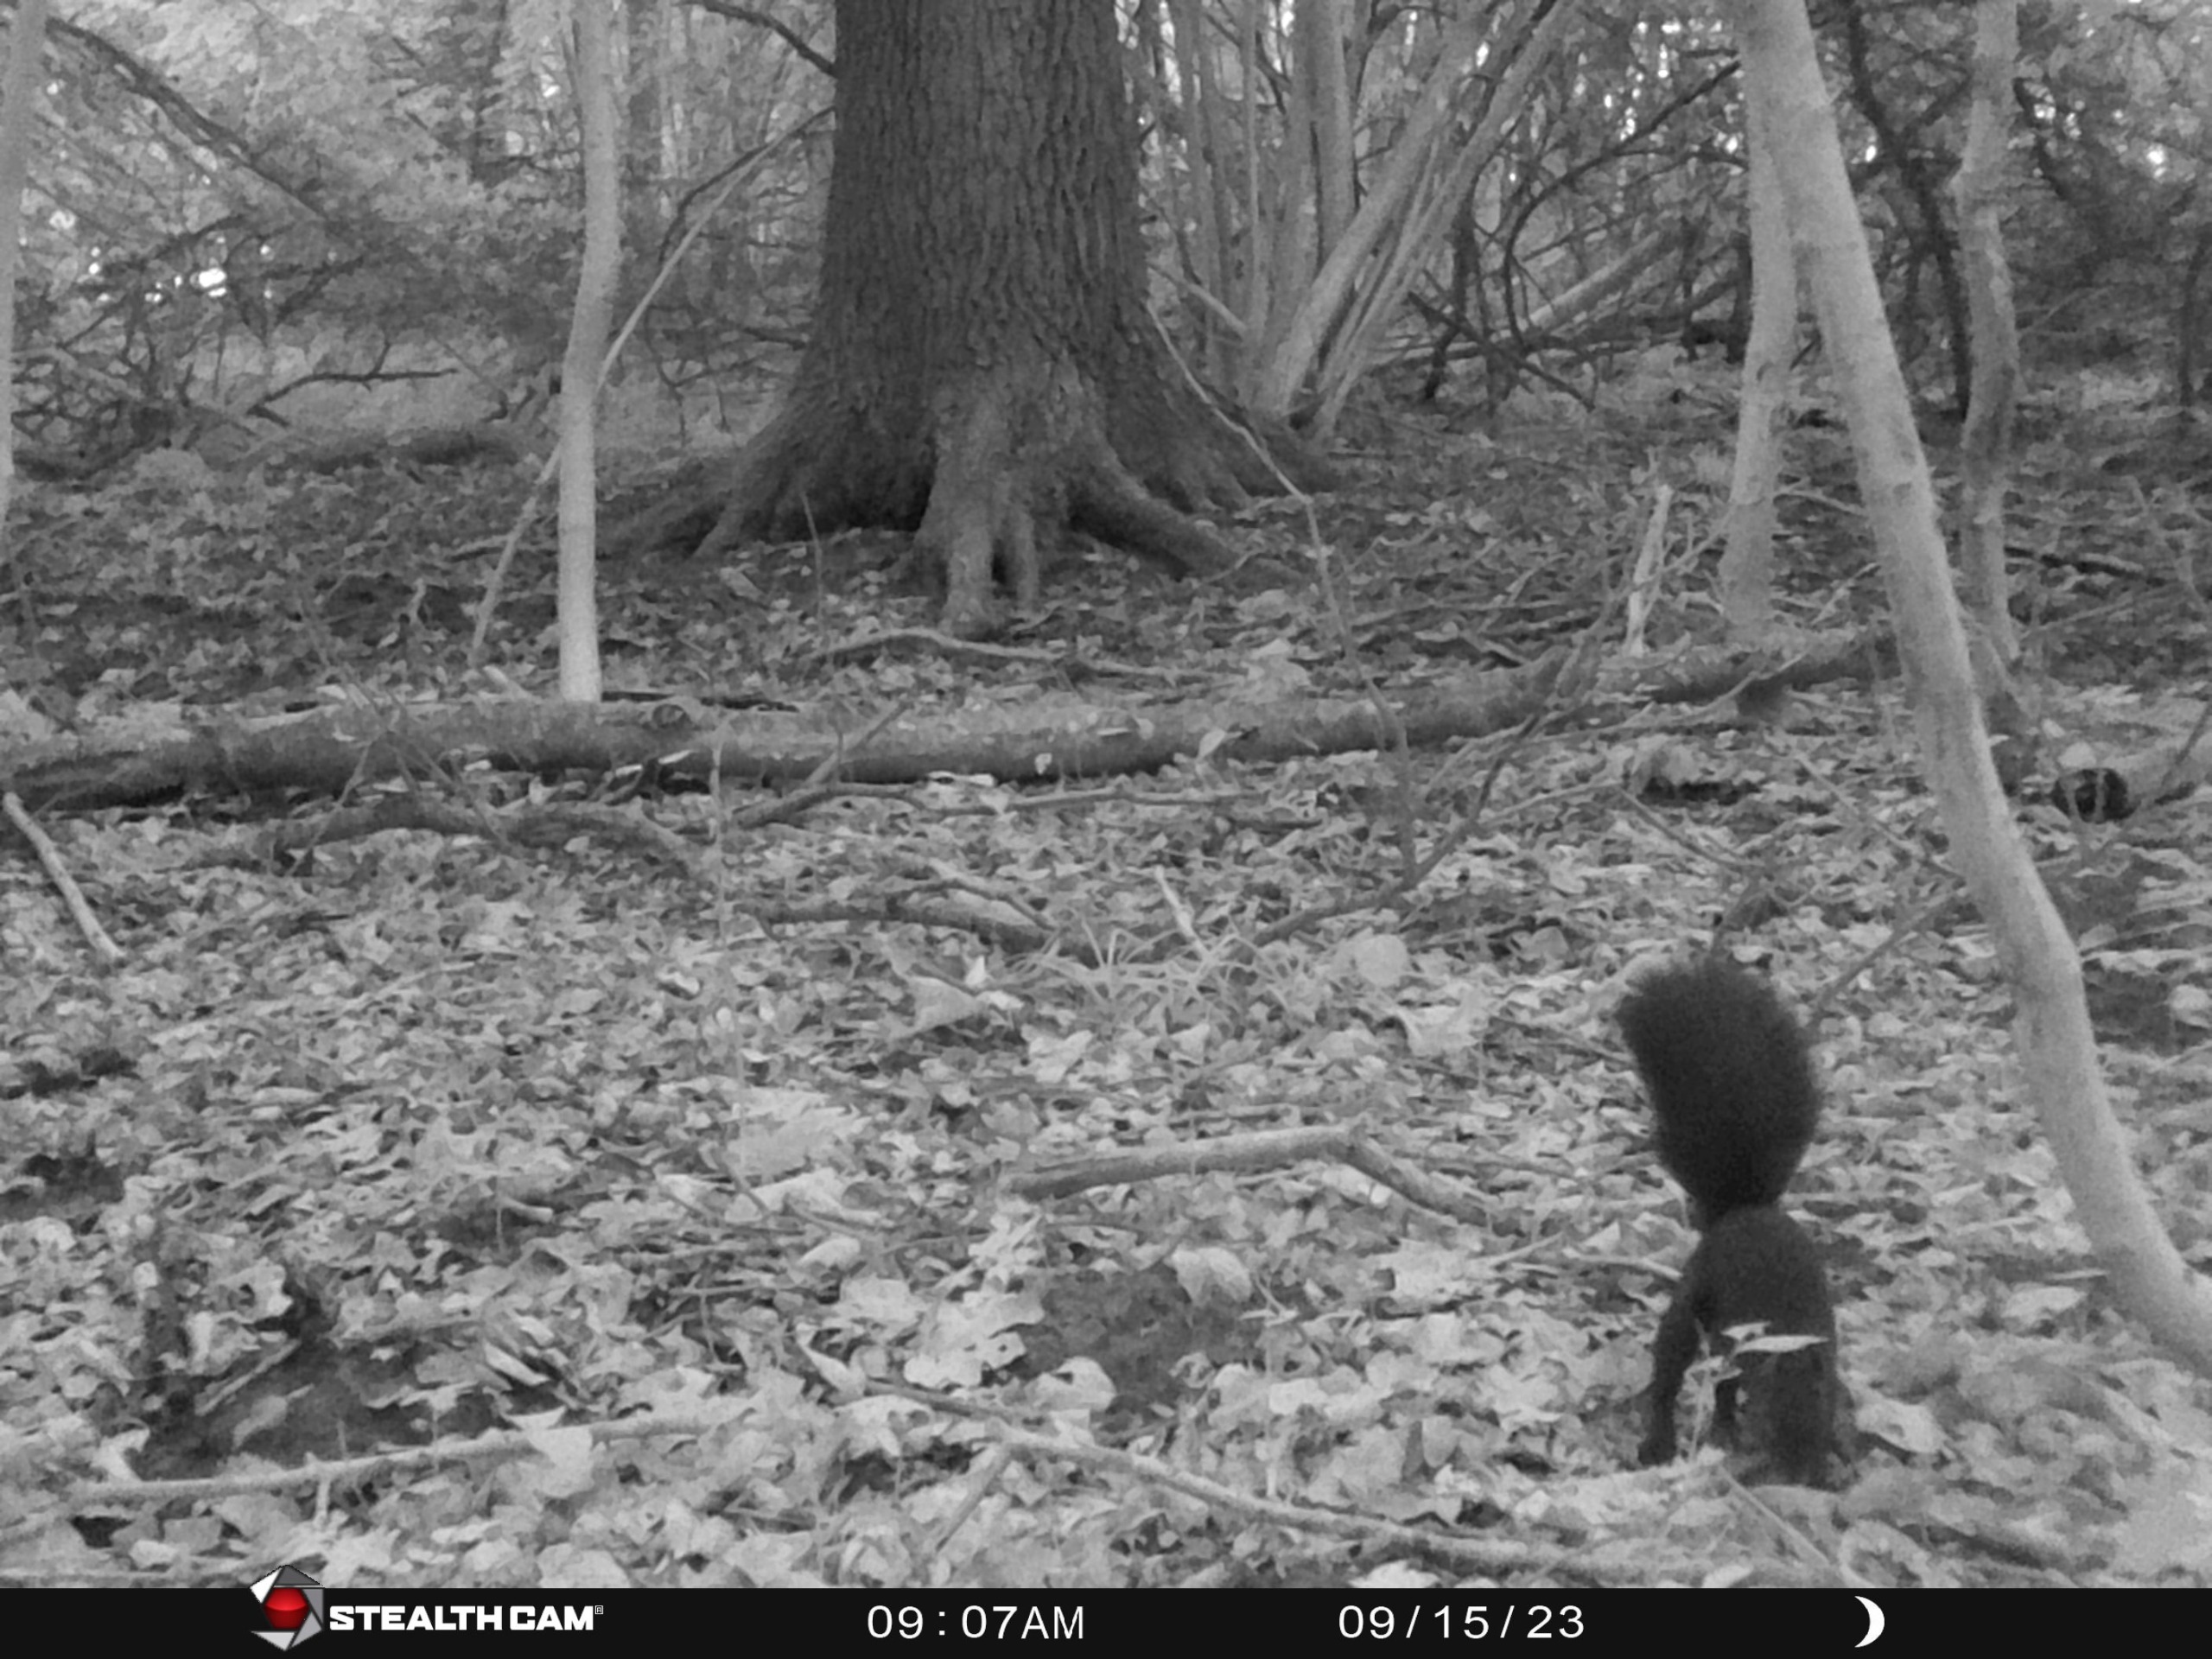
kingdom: Animalia
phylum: Chordata
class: Mammalia
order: Rodentia
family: Sciuridae
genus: Sciurus
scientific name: Sciurus vulgaris
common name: Egern
